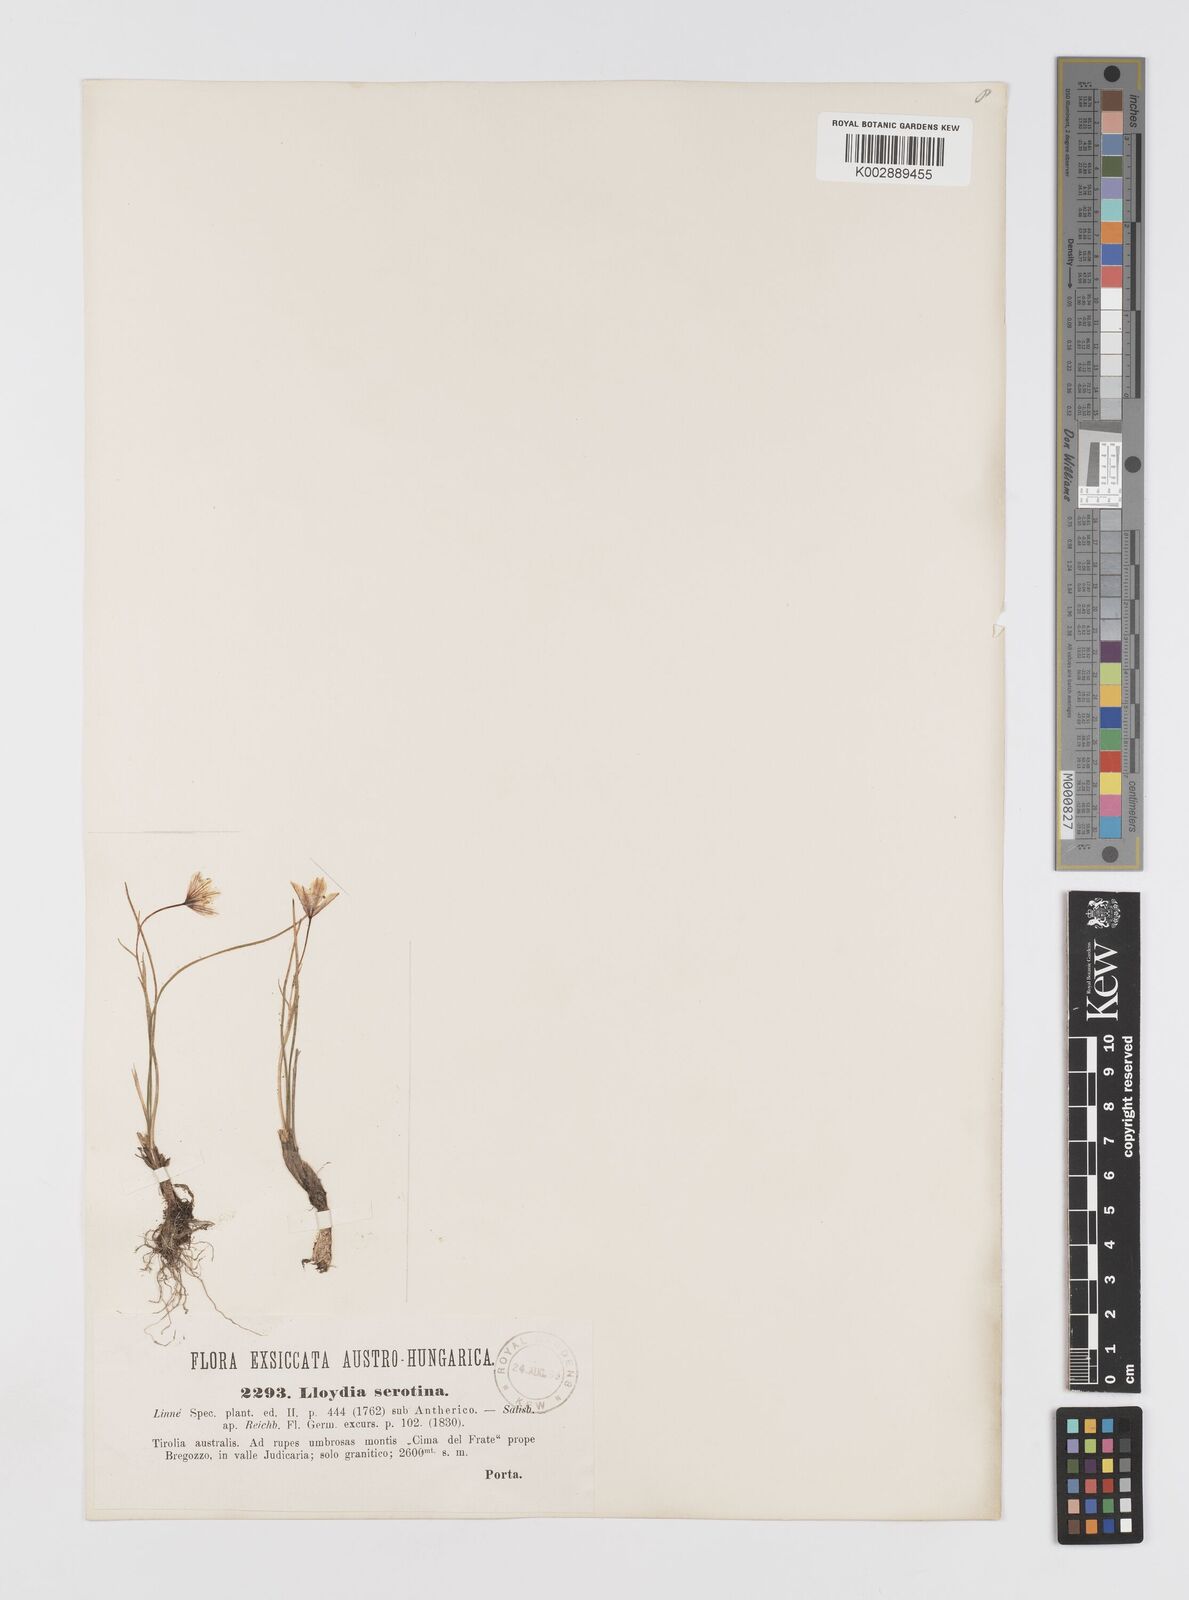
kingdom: Plantae
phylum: Tracheophyta
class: Liliopsida
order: Liliales
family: Liliaceae
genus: Gagea
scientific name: Gagea
